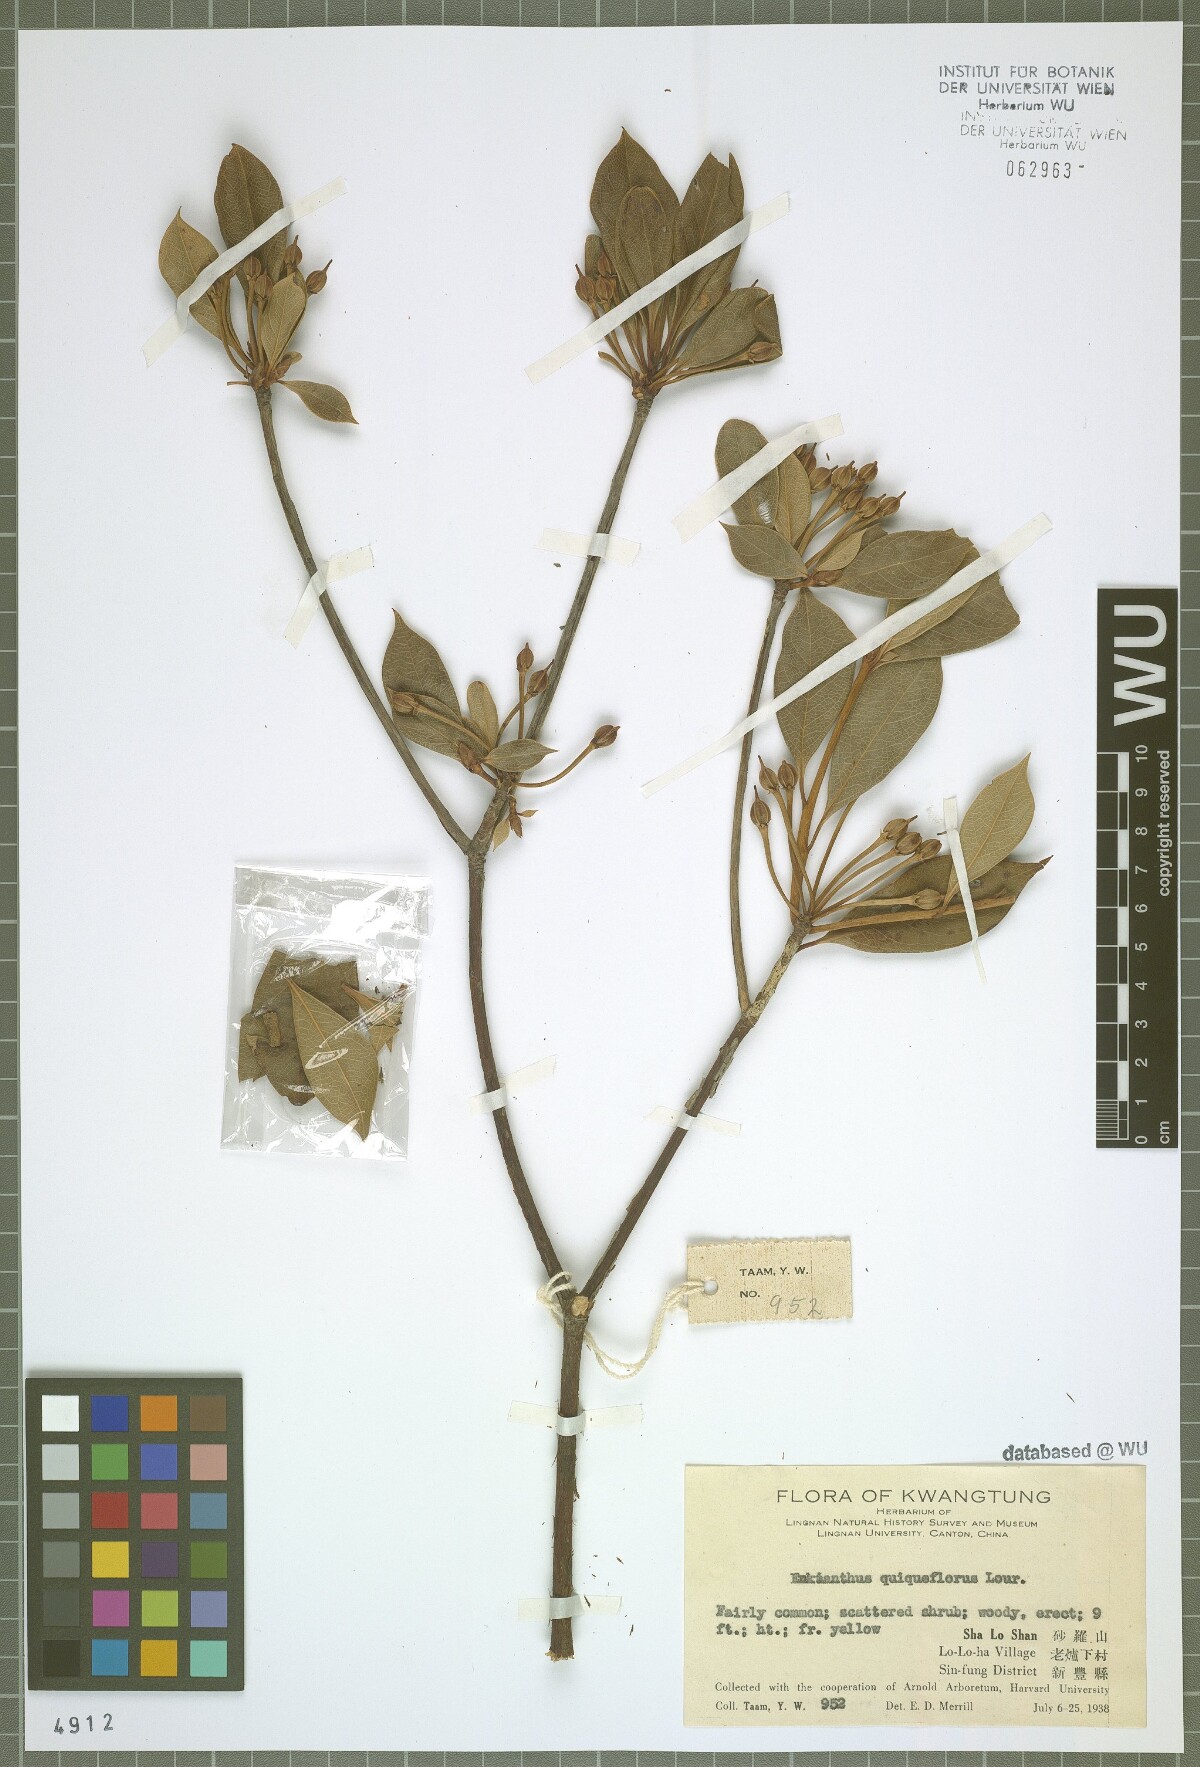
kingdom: Plantae
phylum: Tracheophyta
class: Magnoliopsida
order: Ericales
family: Ericaceae
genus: Enkianthus
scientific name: Enkianthus quinqueflorus
